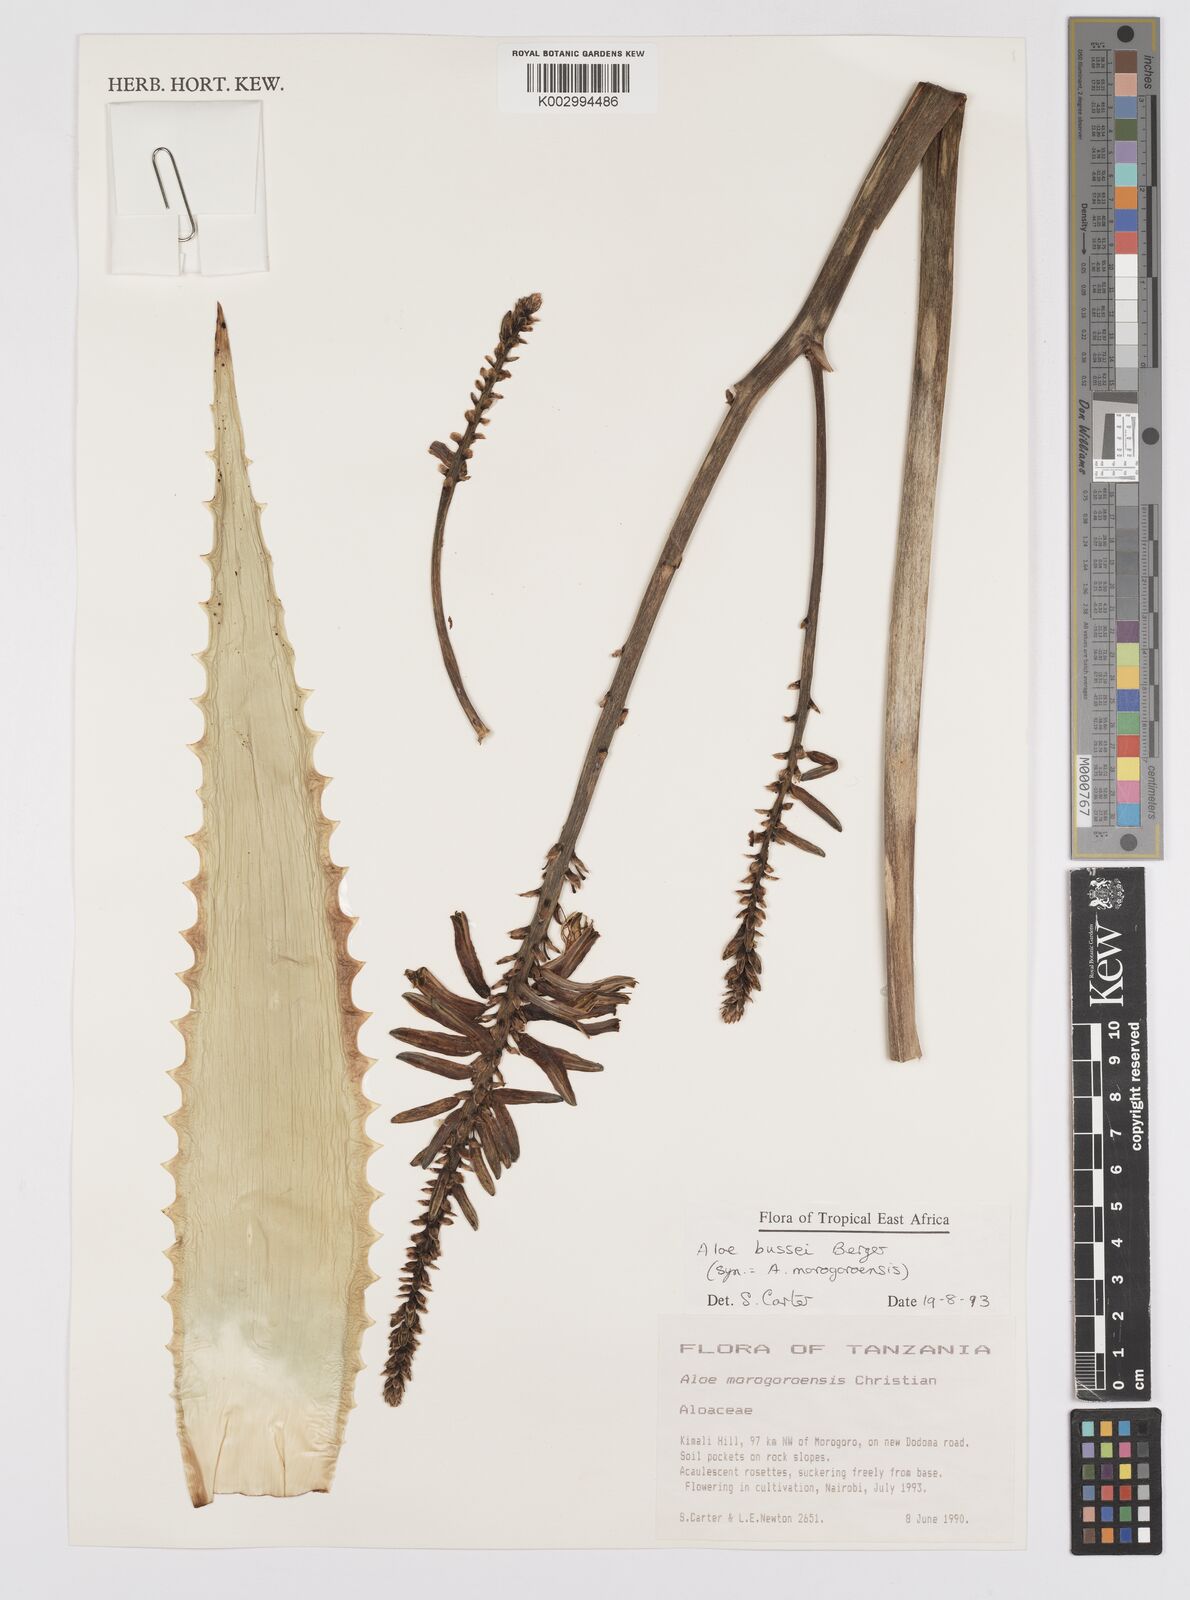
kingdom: Plantae
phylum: Tracheophyta
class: Liliopsida
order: Asparagales
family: Asphodelaceae
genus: Aloe
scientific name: Aloe bussei
